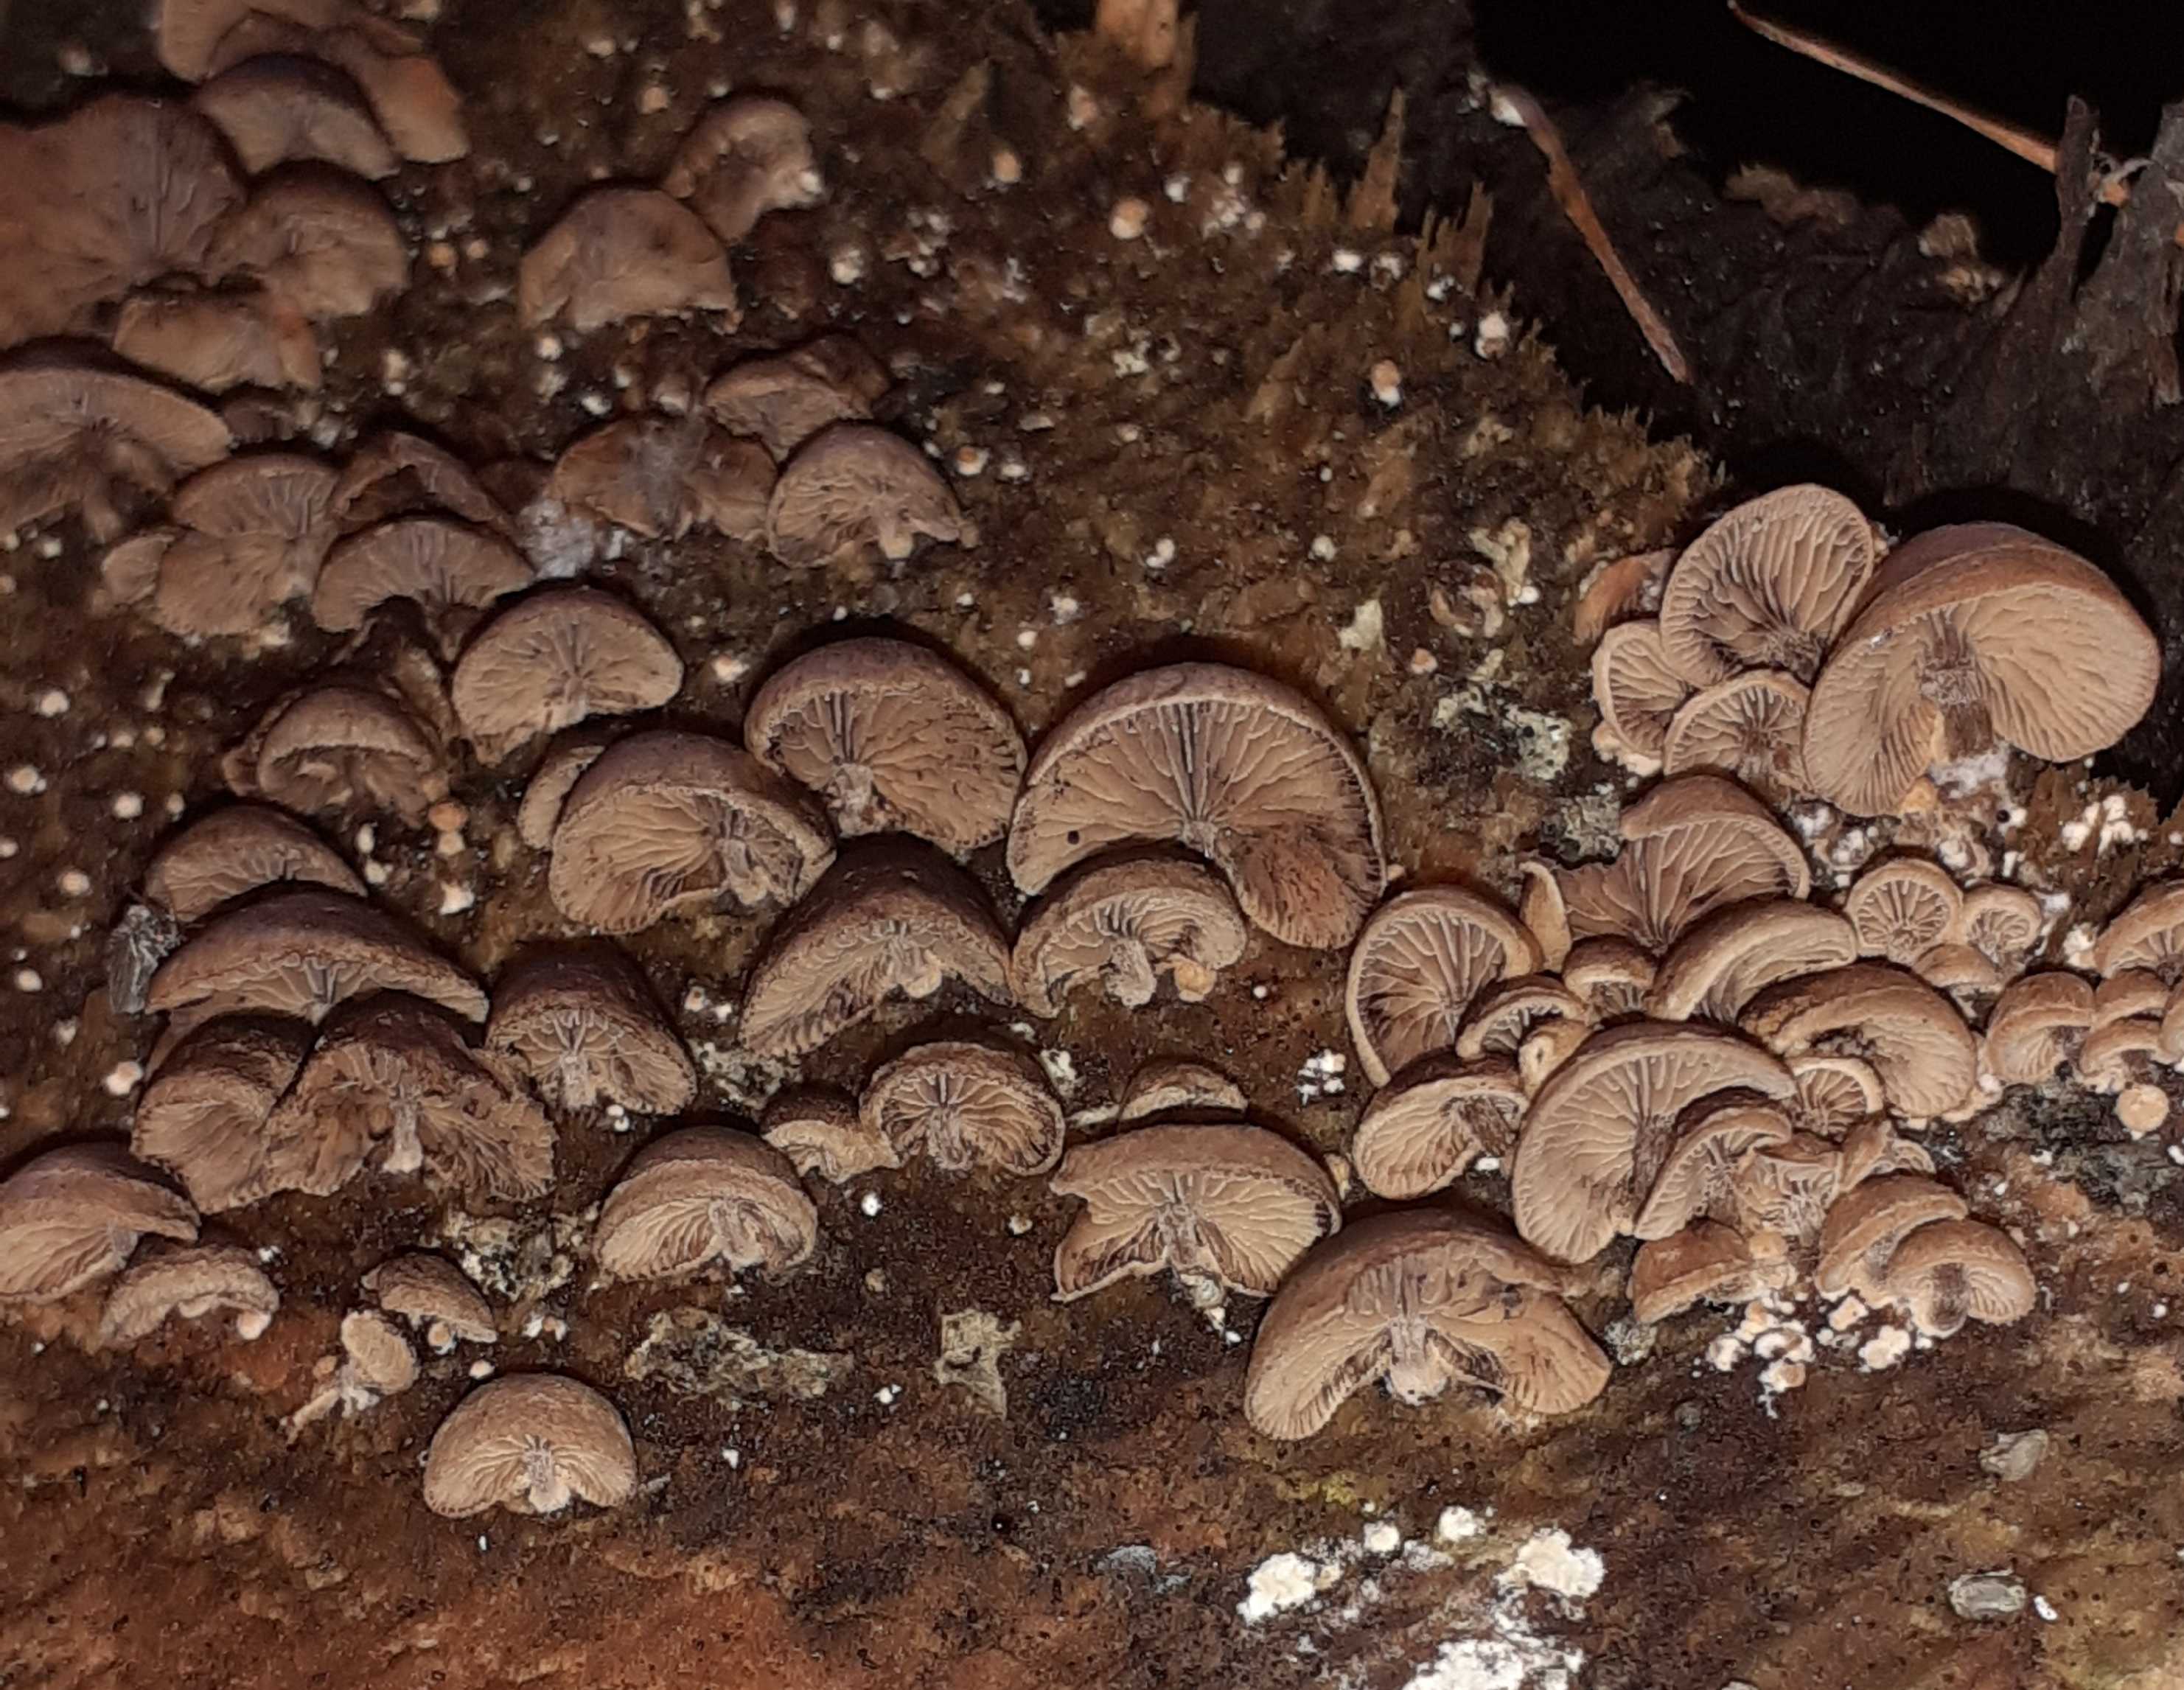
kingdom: Fungi
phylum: Basidiomycota
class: Agaricomycetes
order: Agaricales
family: Strophariaceae
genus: Deconica
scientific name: Deconica horizontalis
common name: ved-stråhat
